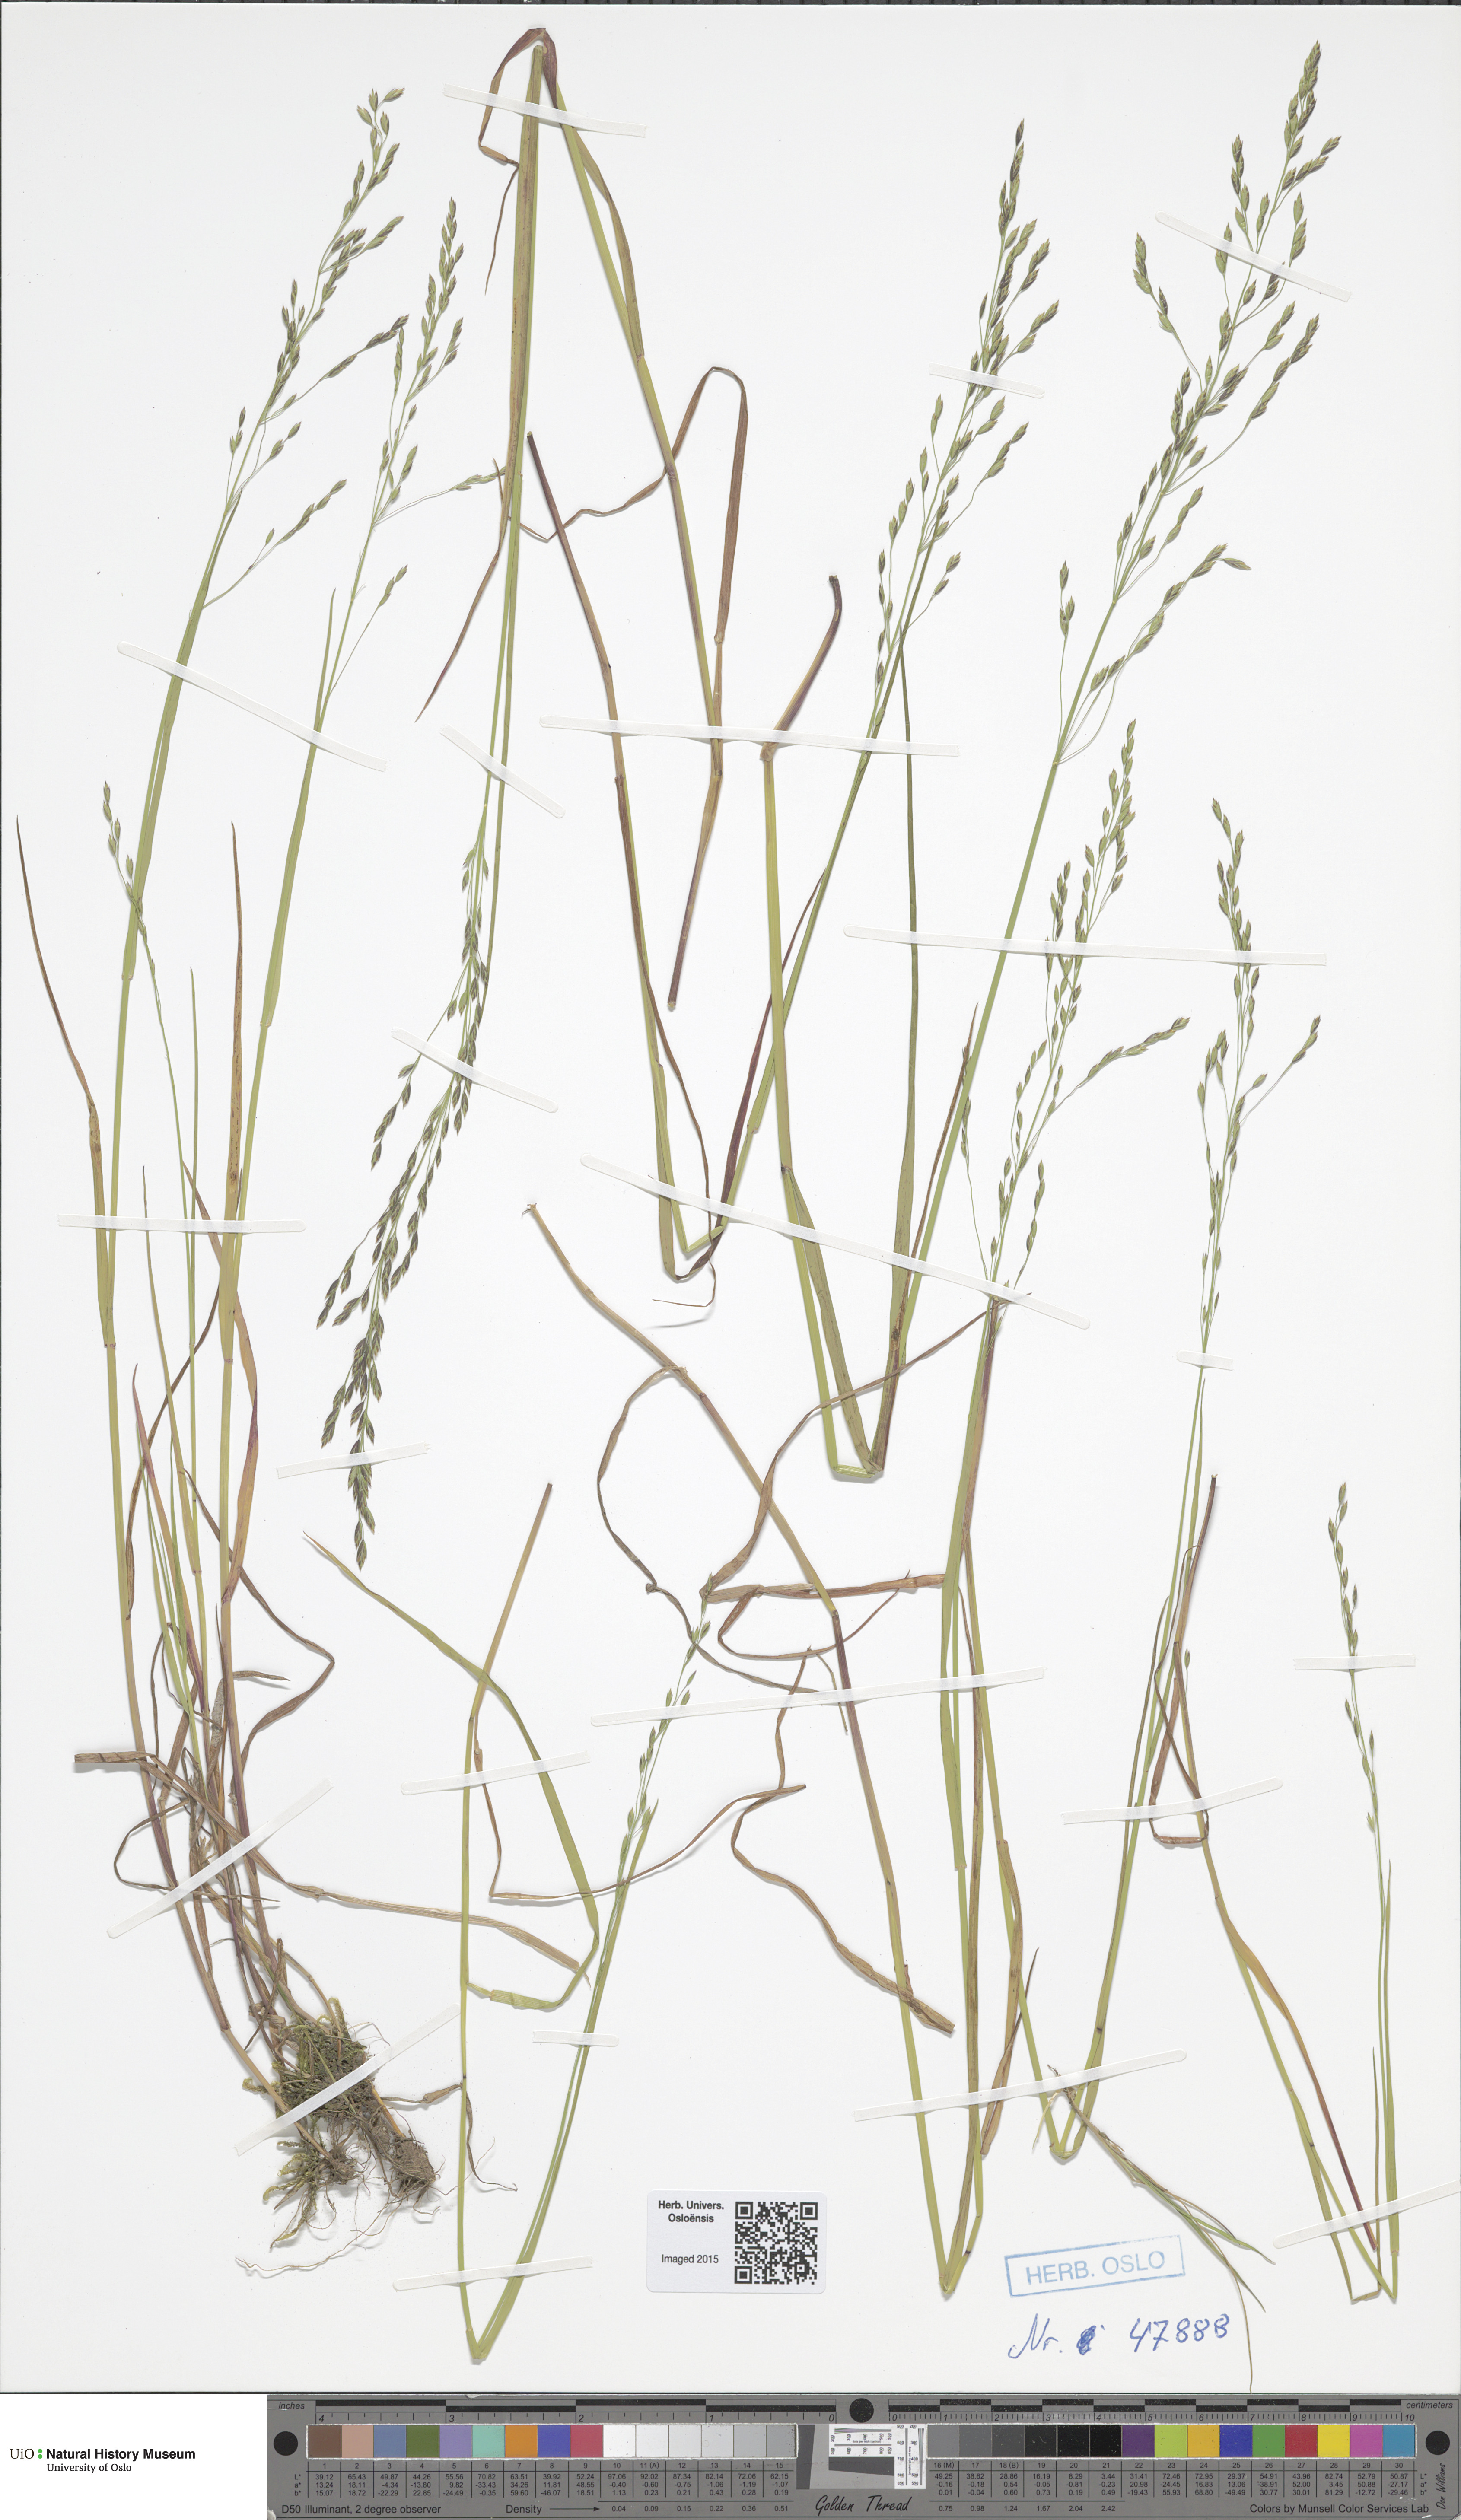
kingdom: Plantae
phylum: Tracheophyta
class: Liliopsida
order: Poales
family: Poaceae
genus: Poa
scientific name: Poa palustris
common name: Swamp meadow-grass
